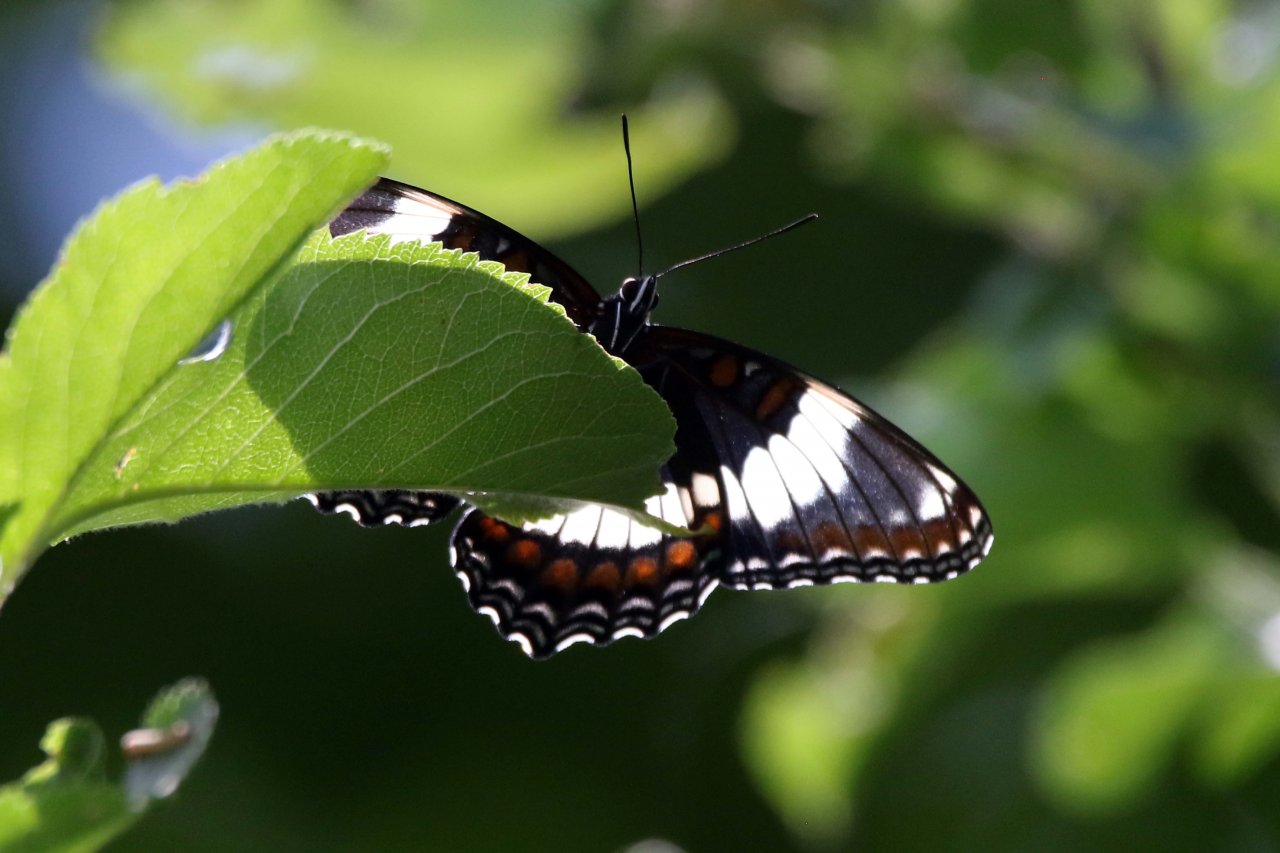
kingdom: Animalia
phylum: Arthropoda
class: Insecta
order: Lepidoptera
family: Nymphalidae
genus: Limenitis
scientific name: Limenitis arthemis
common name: Red-spotted Admiral
